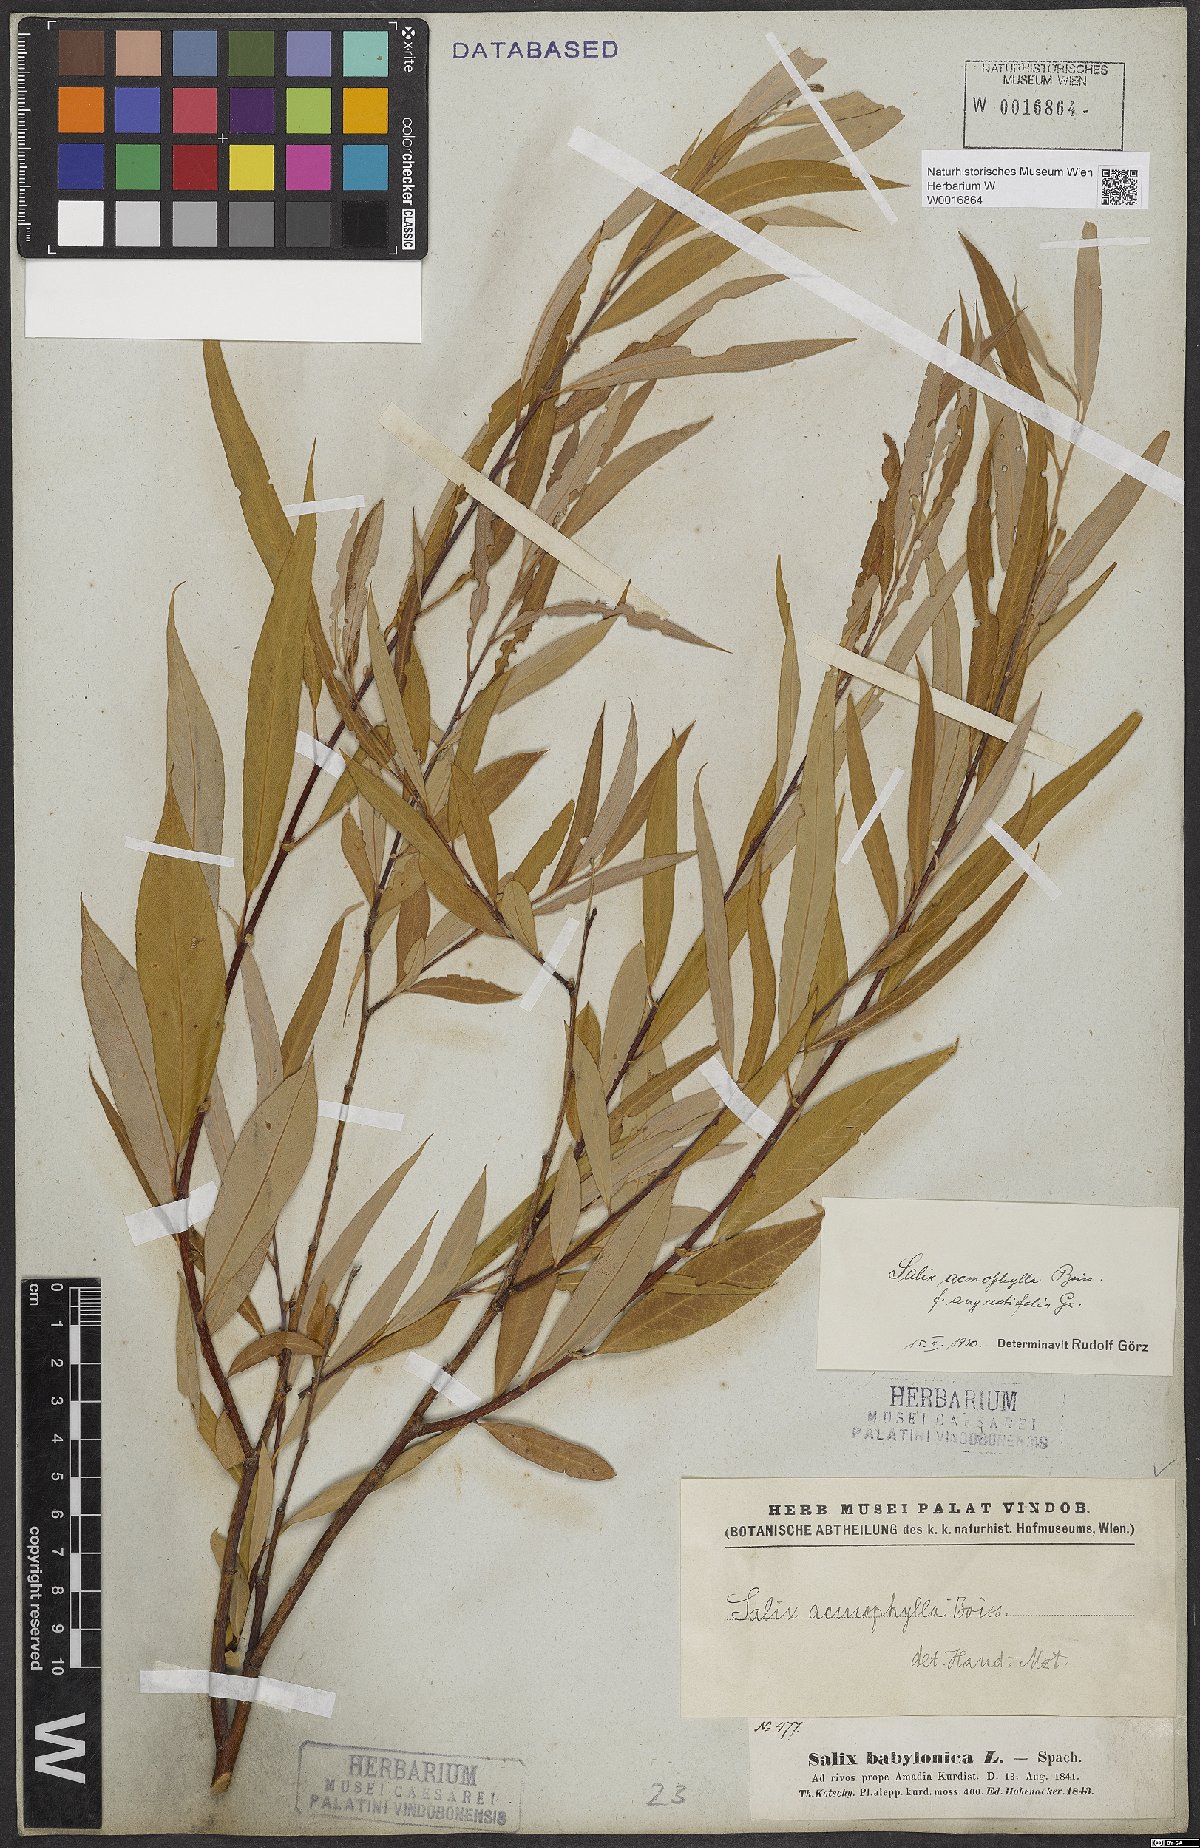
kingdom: Plantae
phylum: Tracheophyta
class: Magnoliopsida
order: Malpighiales
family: Salicaceae
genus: Salix
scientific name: Salix acmophylla
